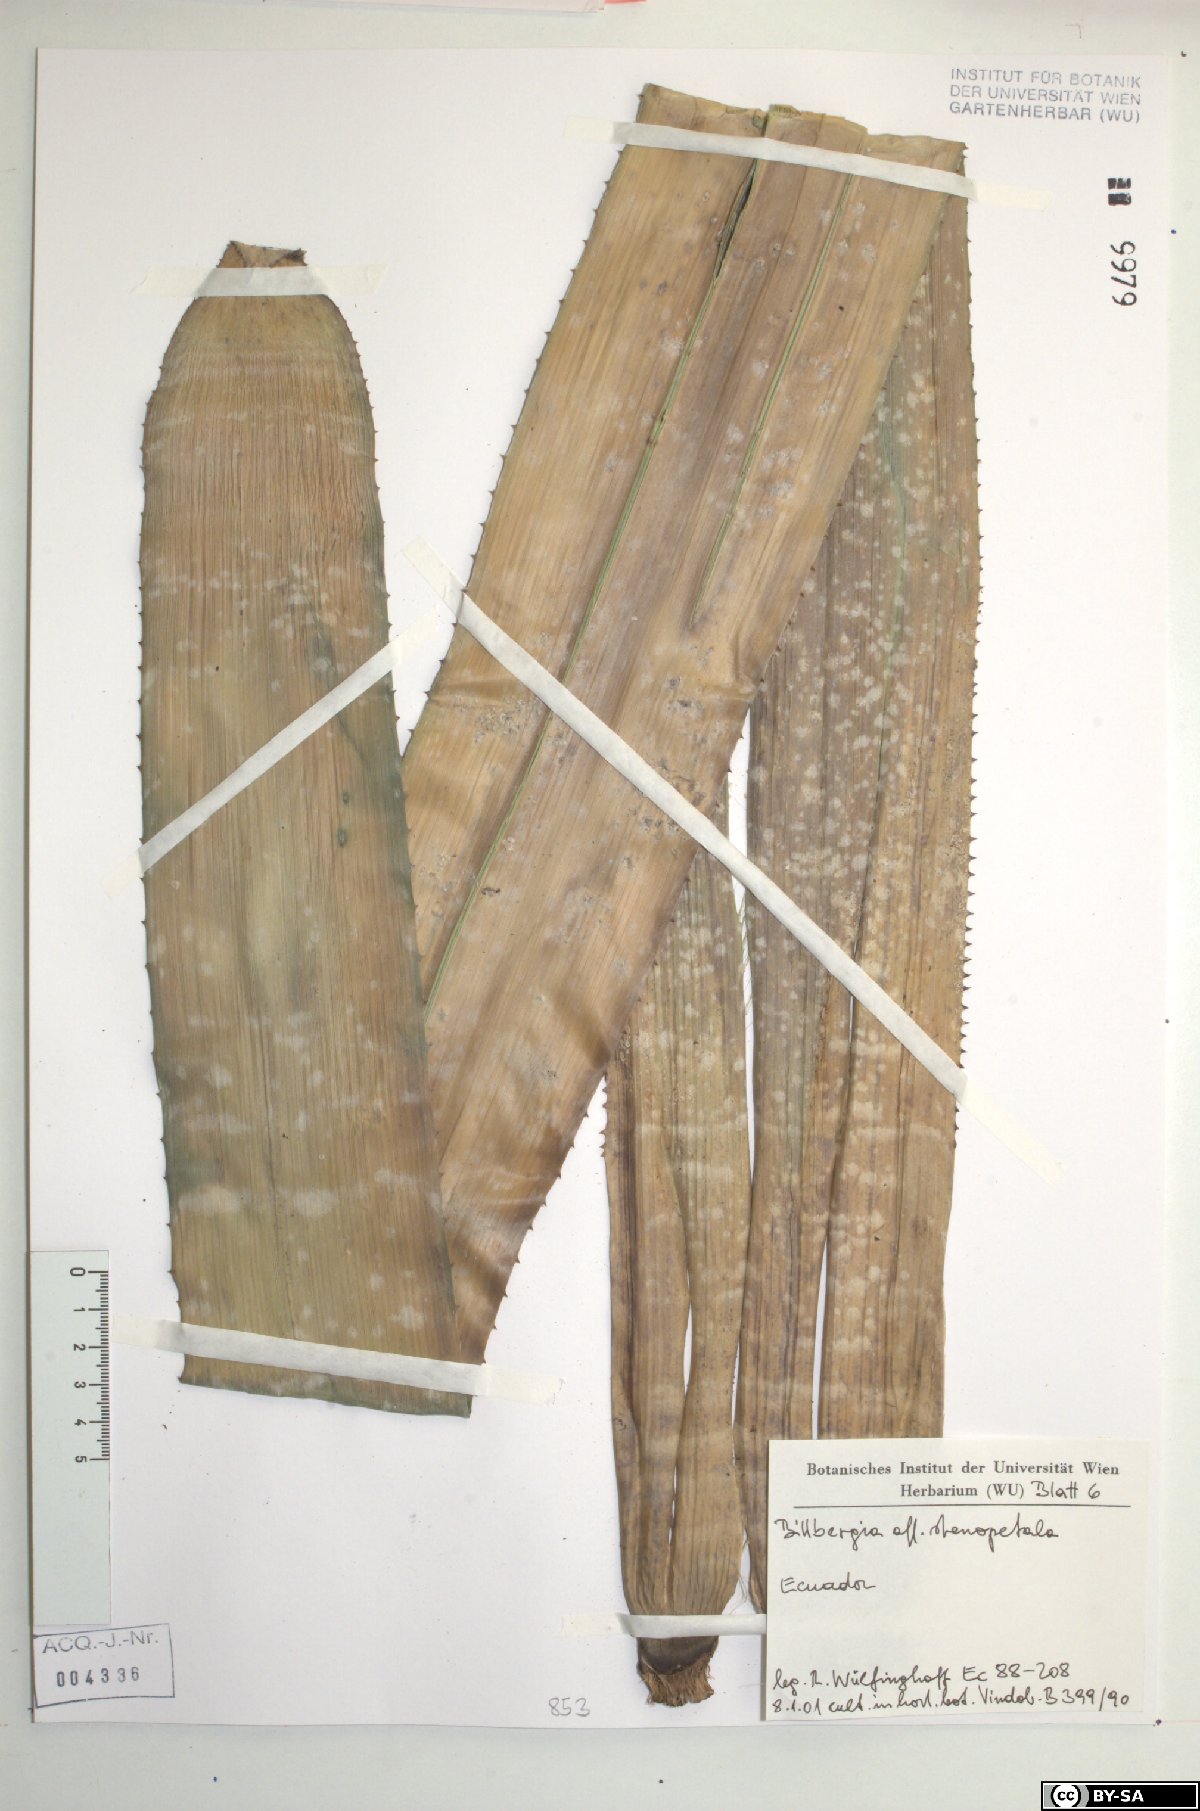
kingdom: Plantae
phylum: Tracheophyta
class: Liliopsida
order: Poales
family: Bromeliaceae
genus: Billbergia
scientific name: Billbergia stenopetala
